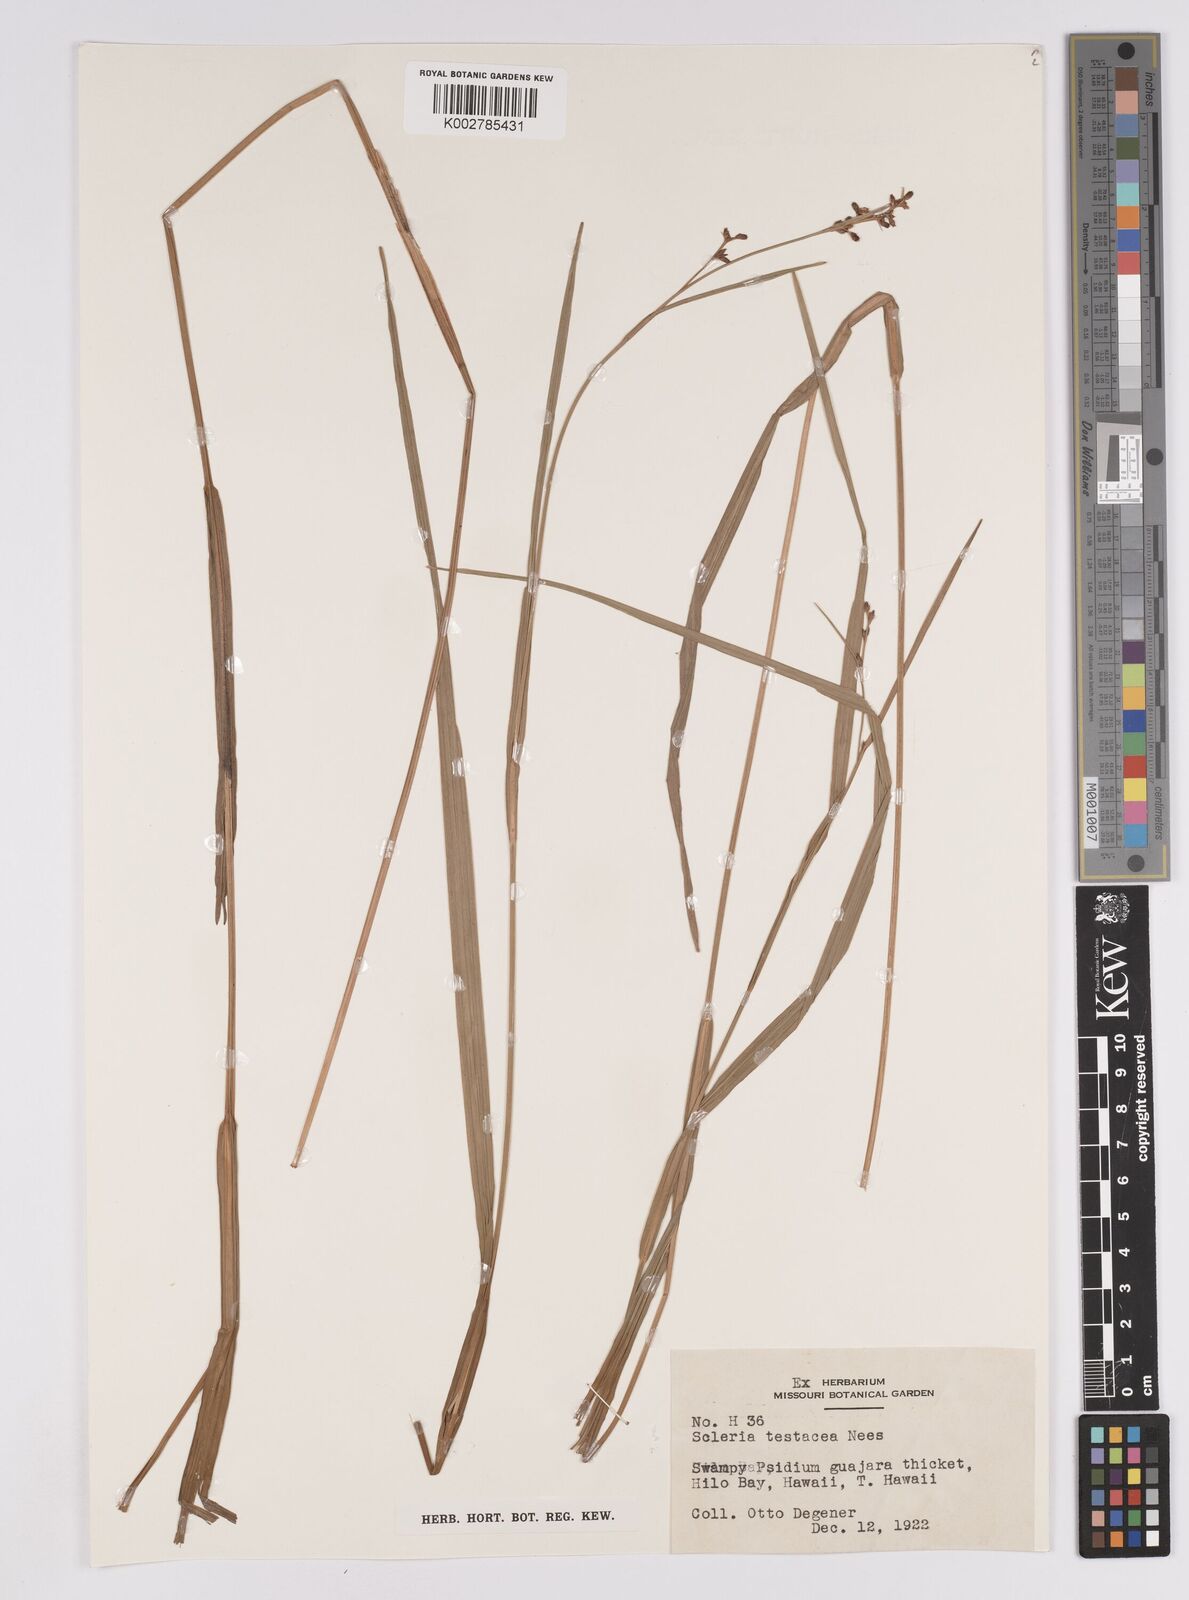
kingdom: Plantae
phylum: Tracheophyta
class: Liliopsida
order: Poales
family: Cyperaceae
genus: Scleria
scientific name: Scleria testacea
